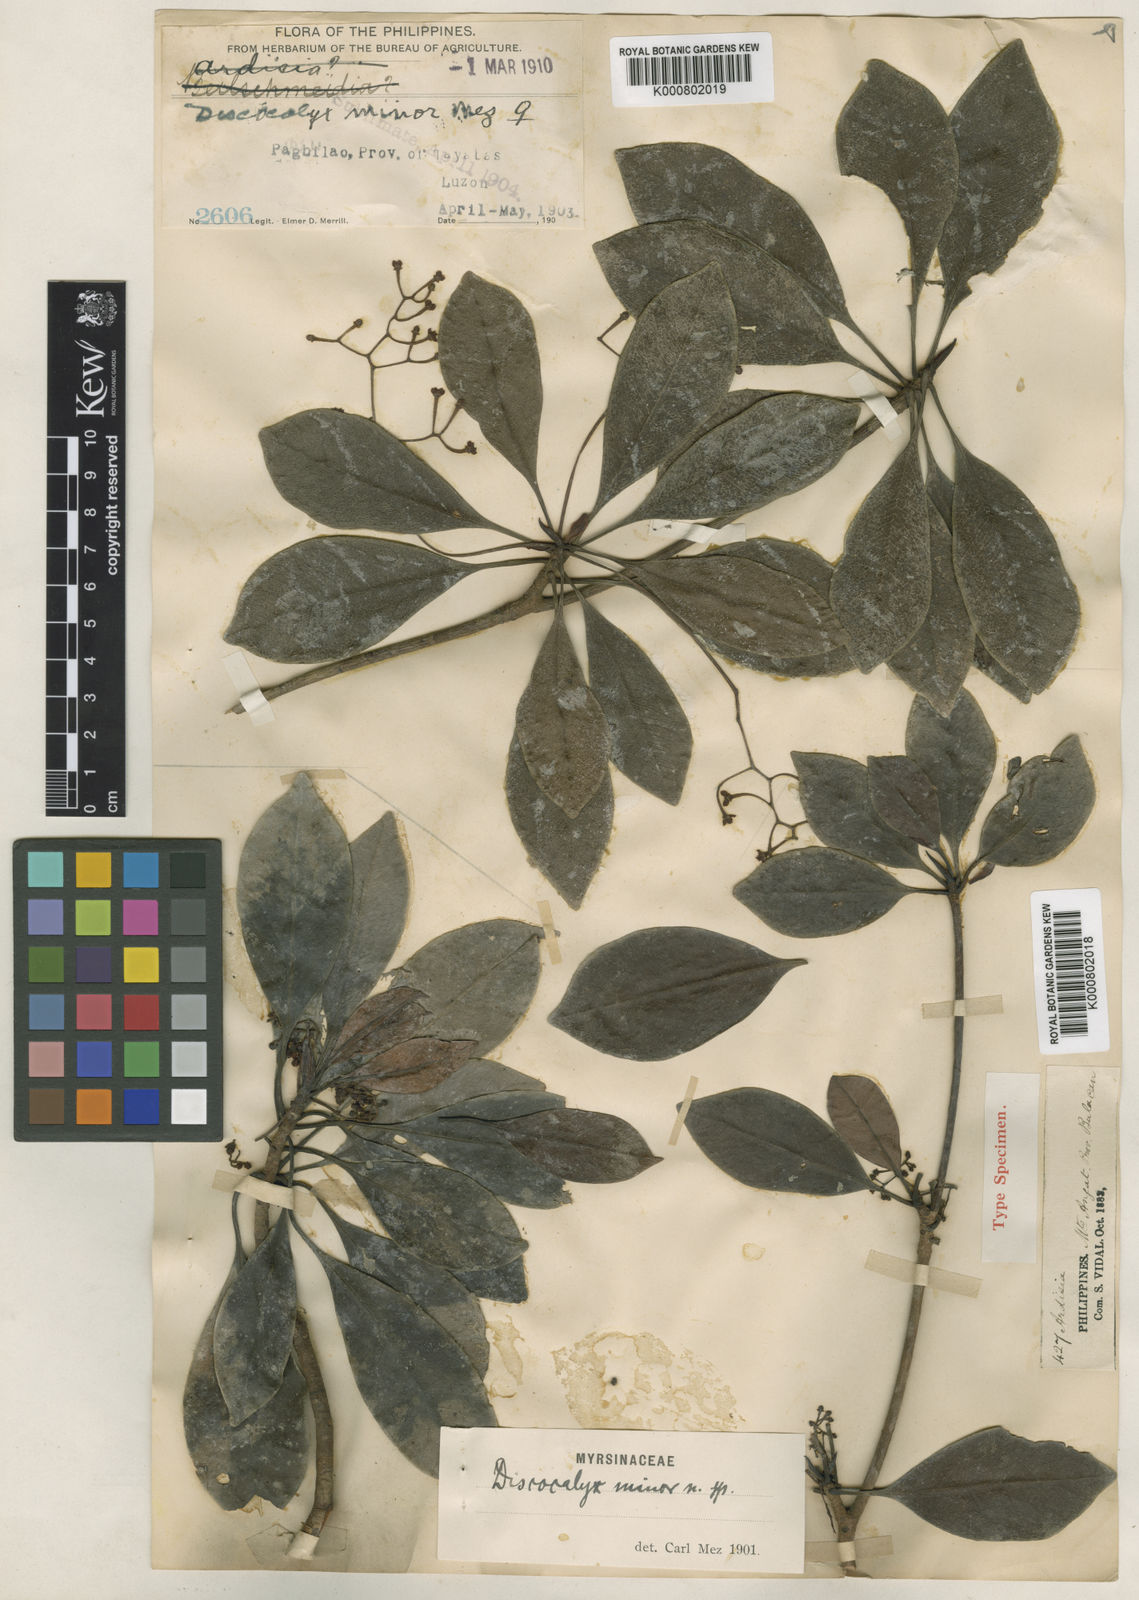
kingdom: Plantae
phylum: Tracheophyta
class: Magnoliopsida
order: Ericales
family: Primulaceae
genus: Discocalyx
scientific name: Discocalyx minor
